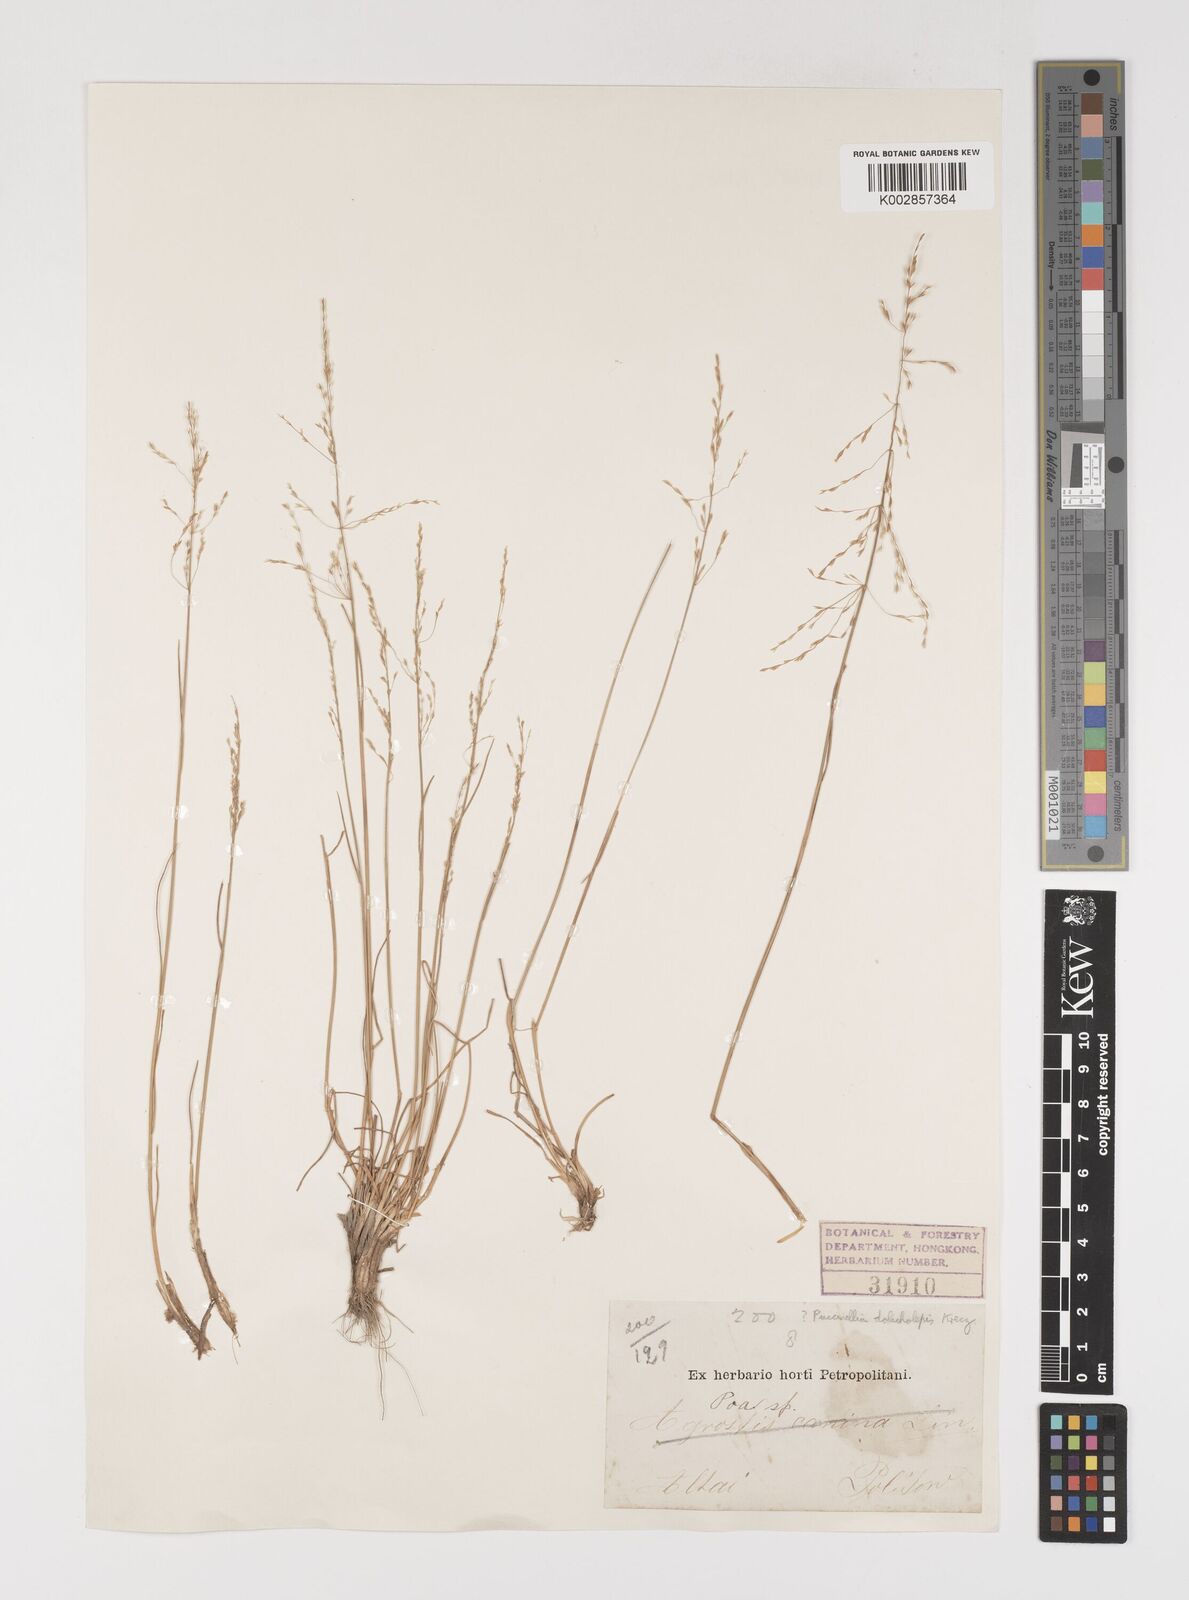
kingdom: Plantae
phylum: Tracheophyta
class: Liliopsida
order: Poales
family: Poaceae
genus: Puccinellia
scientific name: Puccinellia dolicholepis
